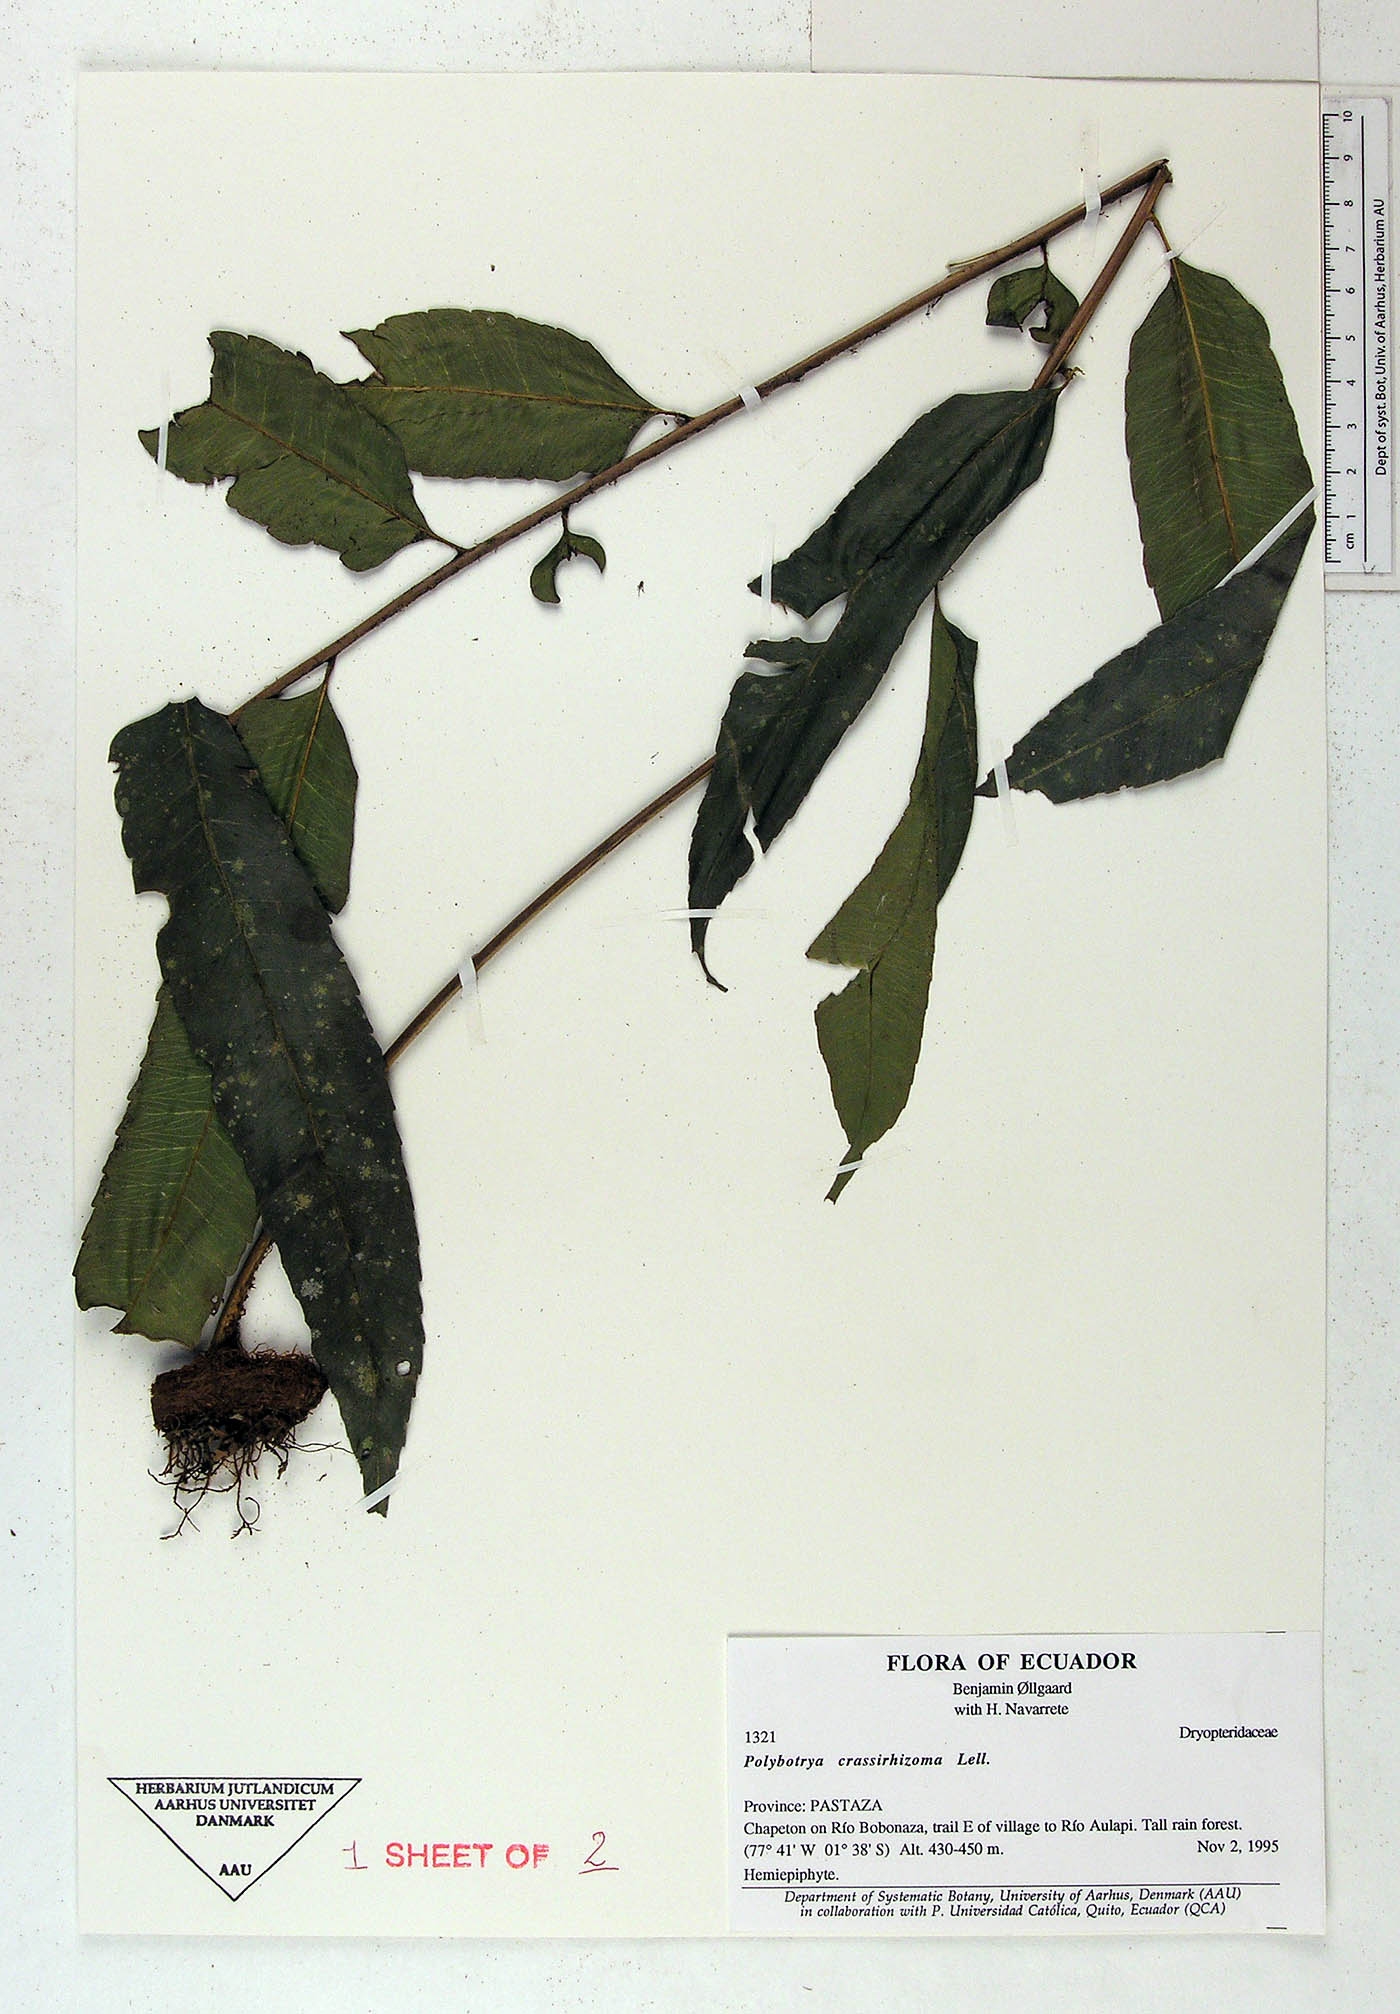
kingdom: Plantae
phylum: Tracheophyta
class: Polypodiopsida
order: Polypodiales
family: Dryopteridaceae
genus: Polybotrya
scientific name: Polybotrya crassirhizoma
